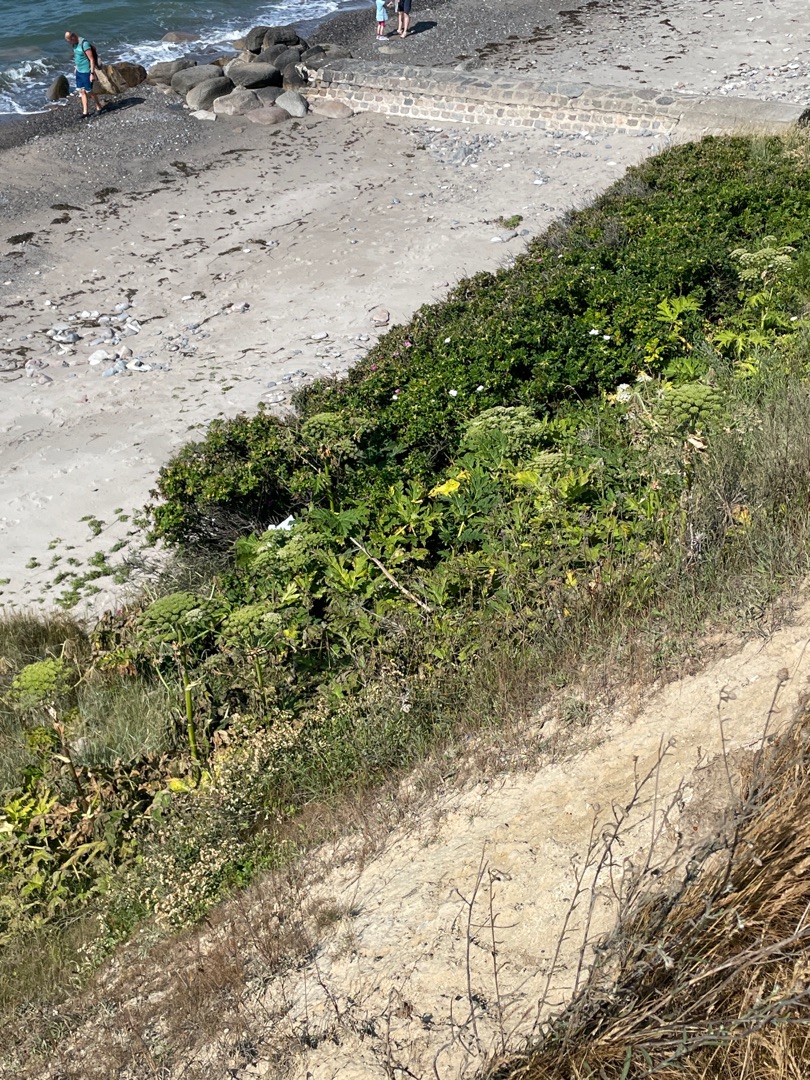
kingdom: Plantae
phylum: Tracheophyta
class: Magnoliopsida
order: Apiales
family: Apiaceae
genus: Heracleum
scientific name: Heracleum mantegazzianum
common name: Kæmpe-bjørneklo
